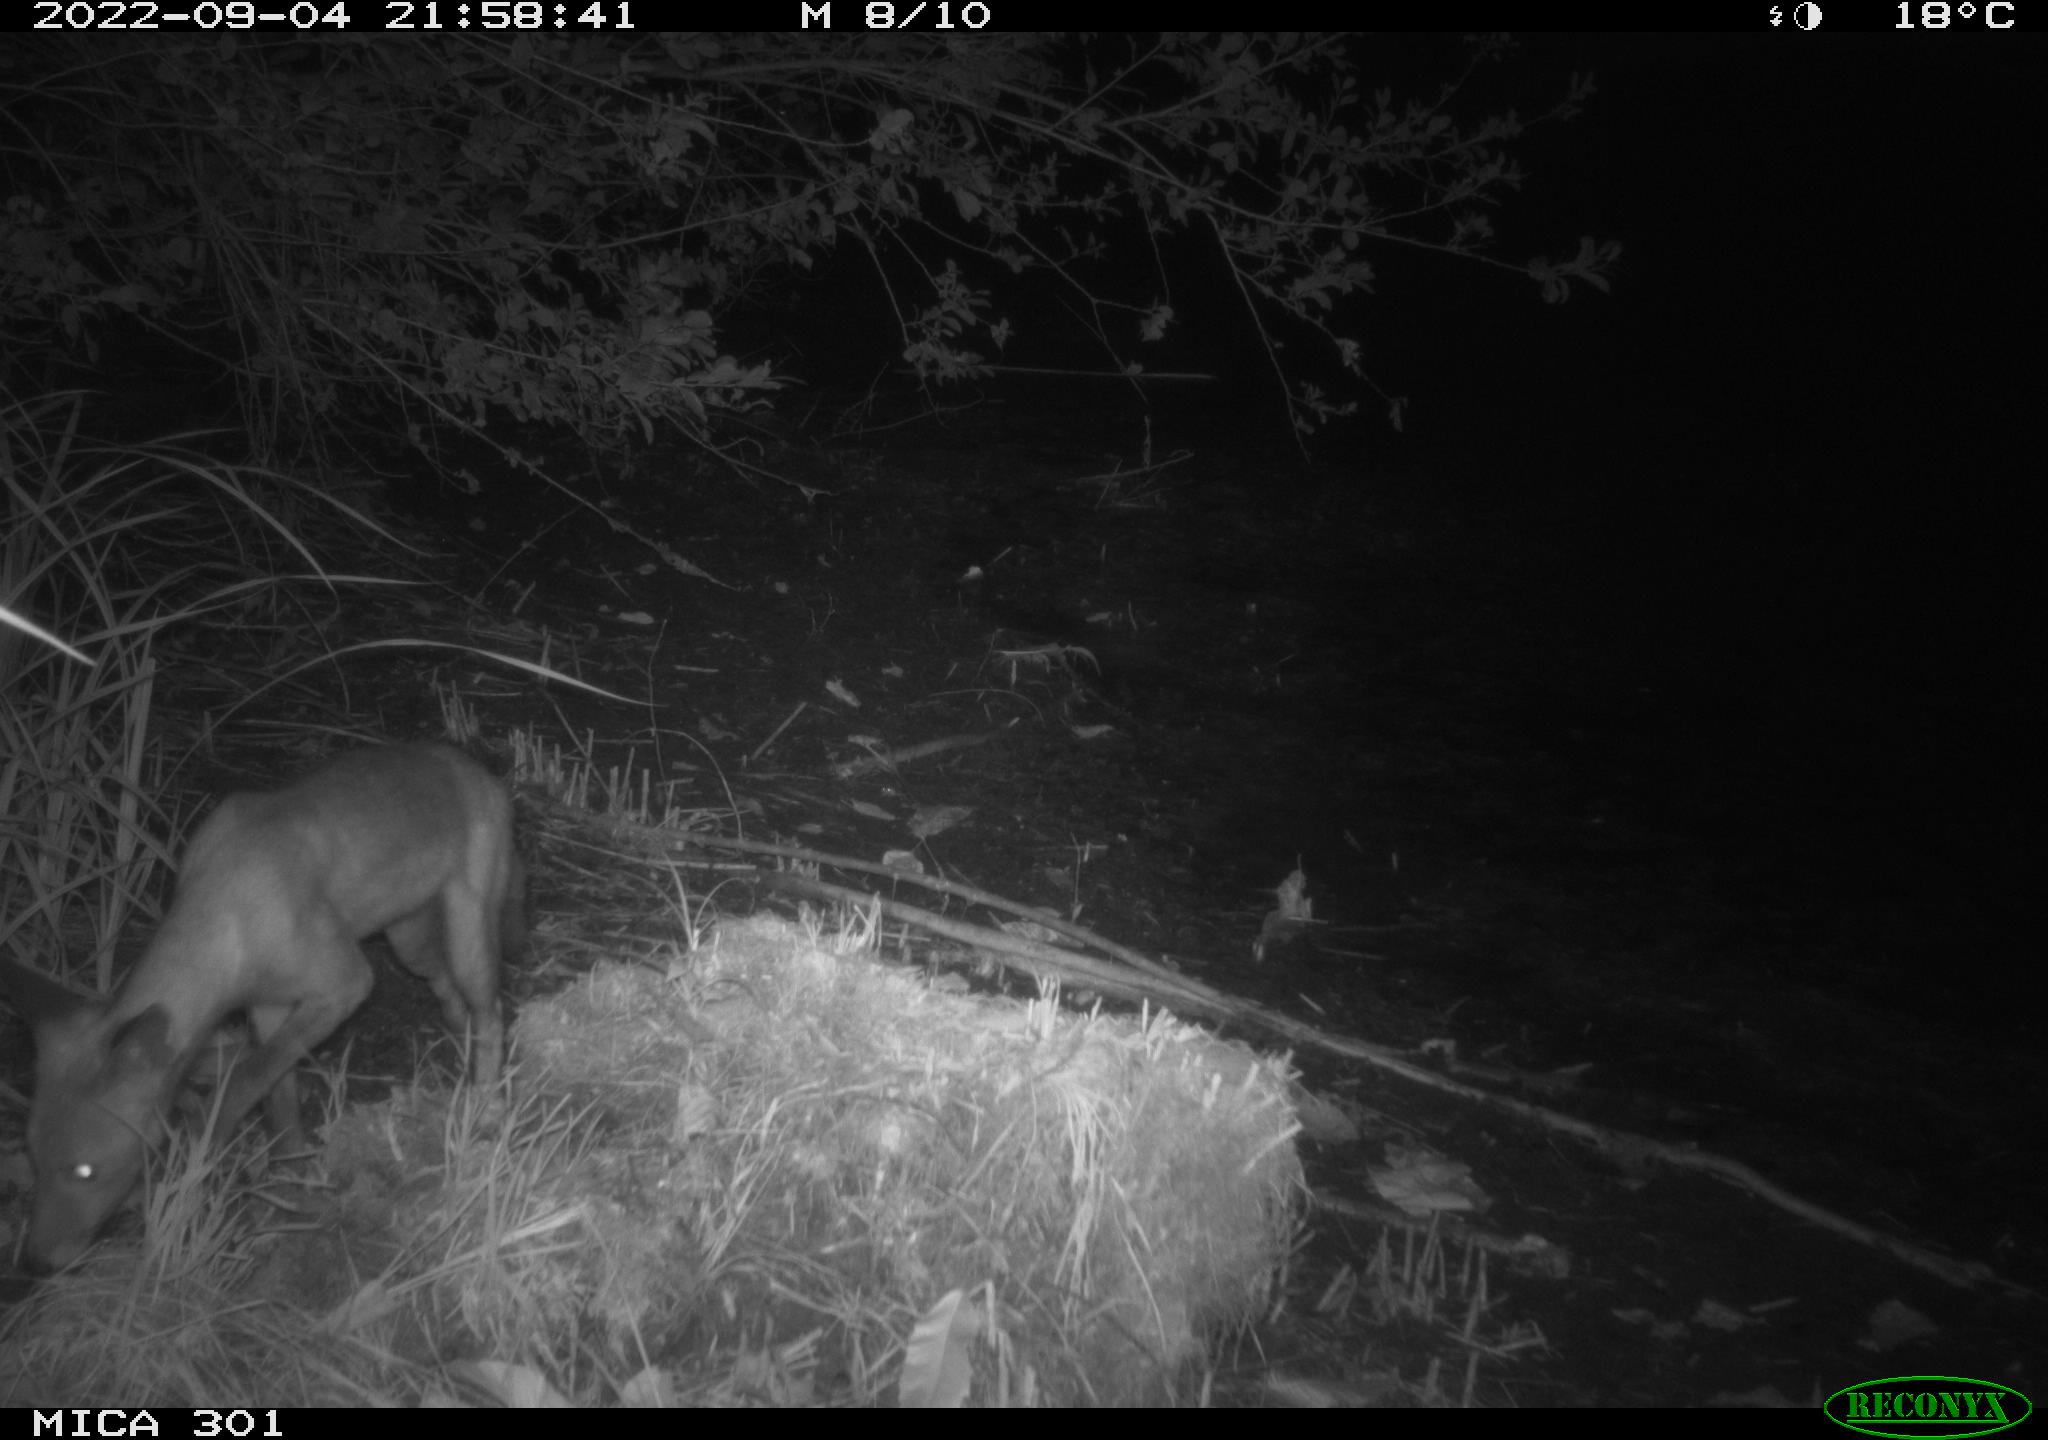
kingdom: Animalia
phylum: Chordata
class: Mammalia
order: Carnivora
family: Canidae
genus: Vulpes
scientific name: Vulpes vulpes
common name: Red fox
